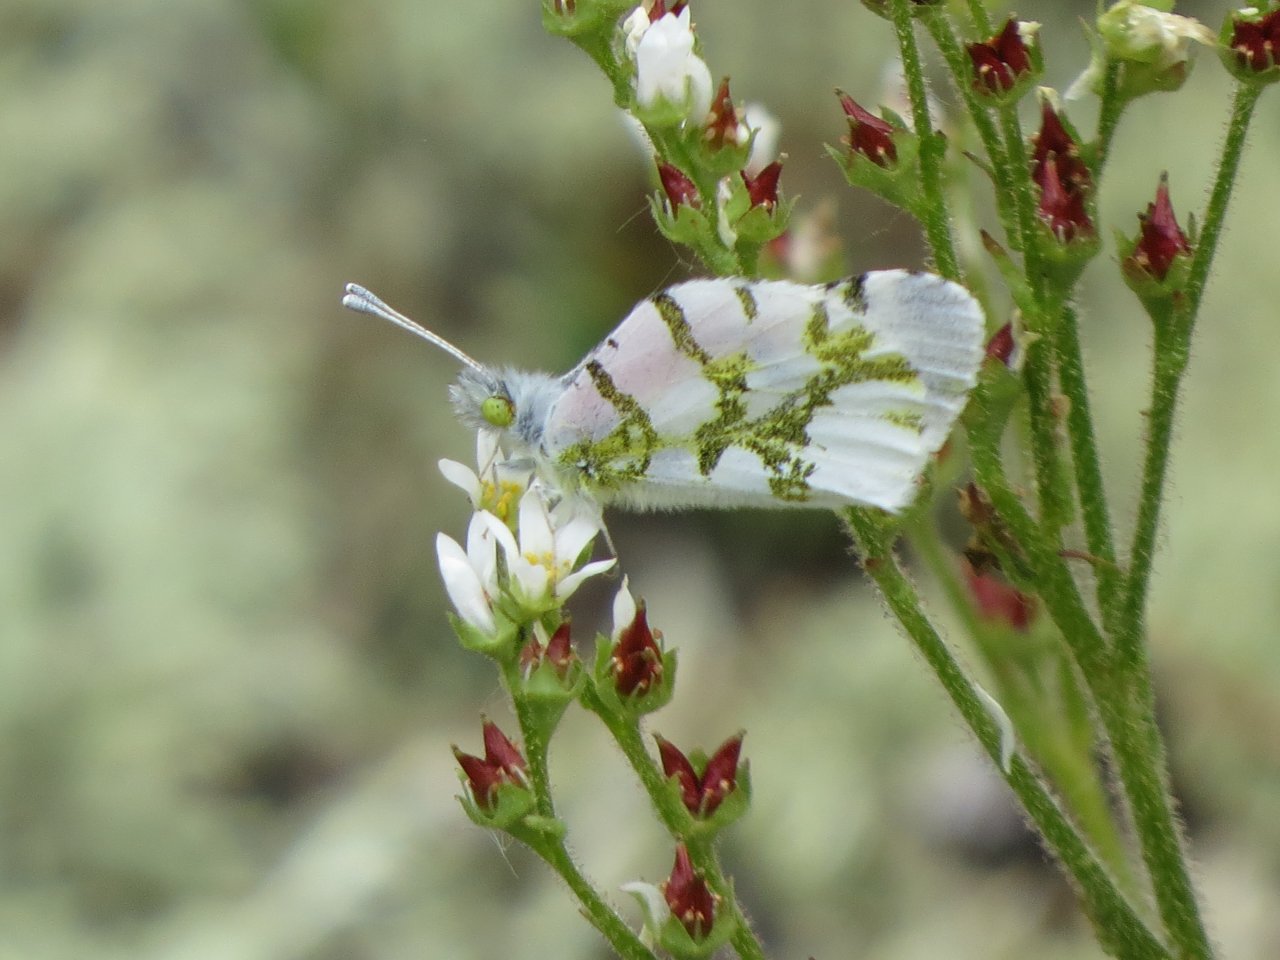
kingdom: Animalia
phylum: Arthropoda
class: Insecta
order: Lepidoptera
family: Pieridae
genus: Euchloe
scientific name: Euchloe olympia
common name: Olympia Marble
